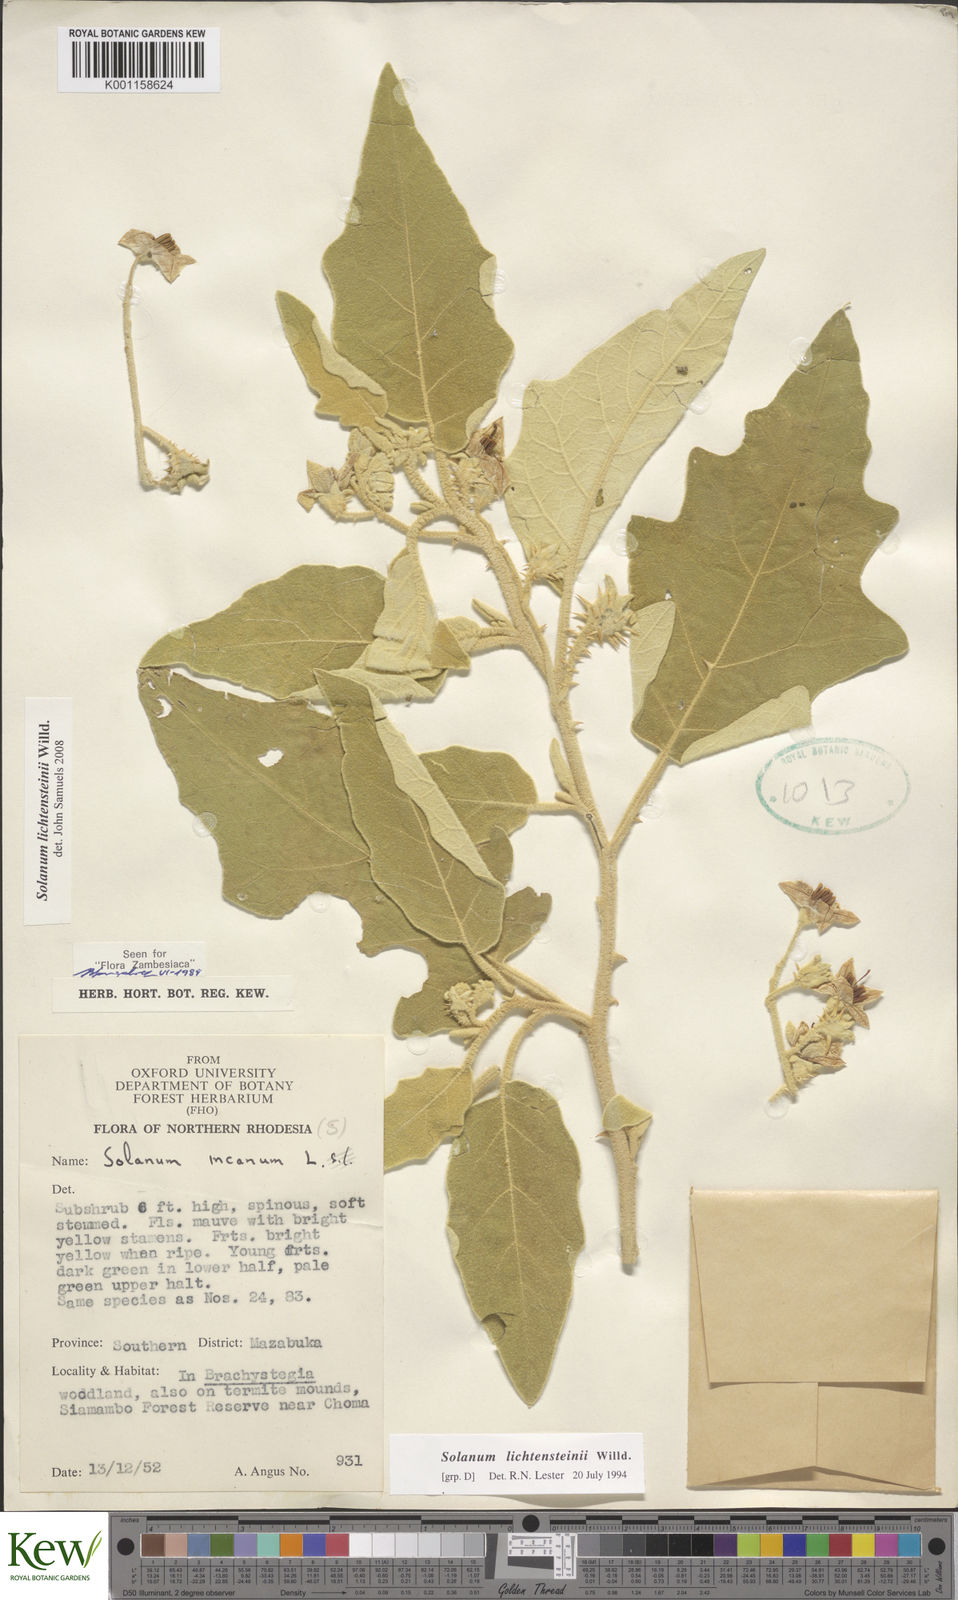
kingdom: Plantae
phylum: Tracheophyta
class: Magnoliopsida
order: Solanales
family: Solanaceae
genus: Solanum
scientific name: Solanum lichtensteinii
